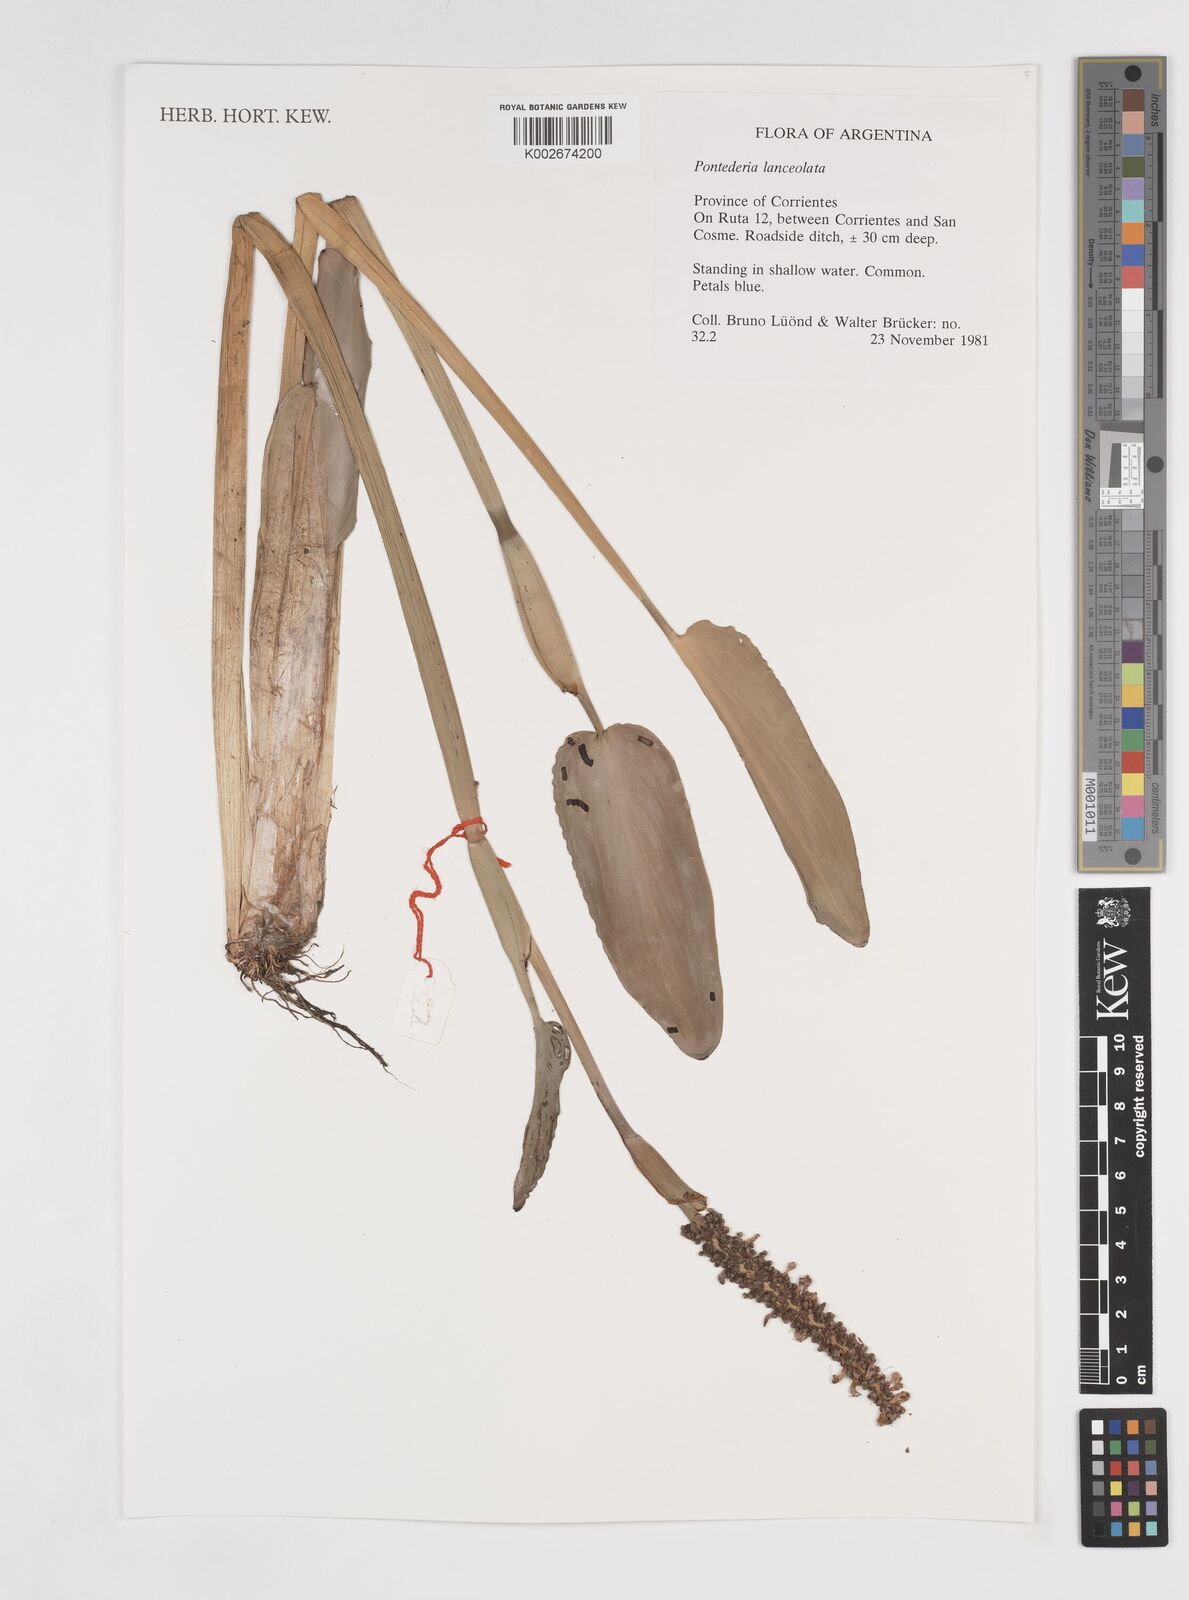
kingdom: Plantae
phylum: Tracheophyta
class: Liliopsida
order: Commelinales
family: Pontederiaceae
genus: Pontederia
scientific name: Pontederia
